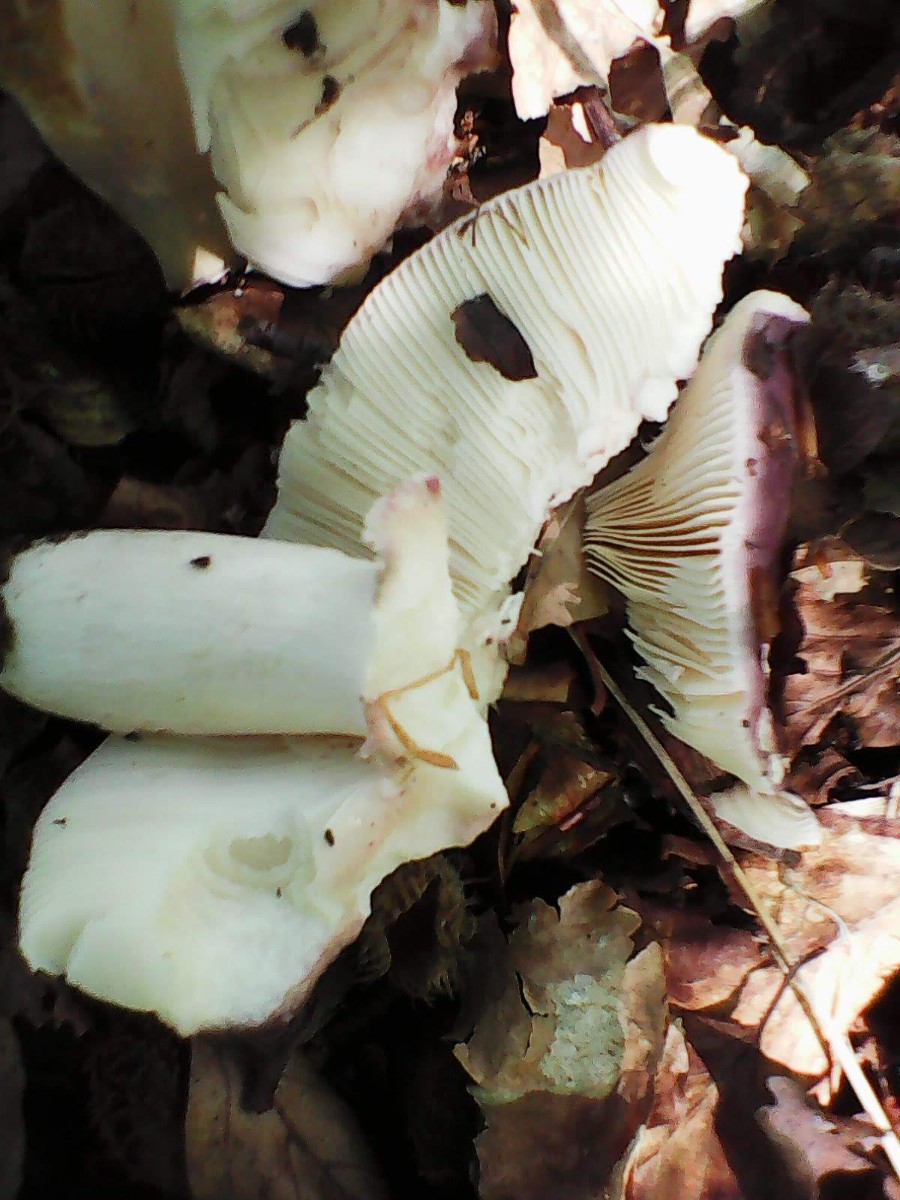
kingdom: Fungi
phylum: Basidiomycota
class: Agaricomycetes
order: Russulales
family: Russulaceae
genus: Russula
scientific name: Russula vesca
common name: spiselig skørhat
